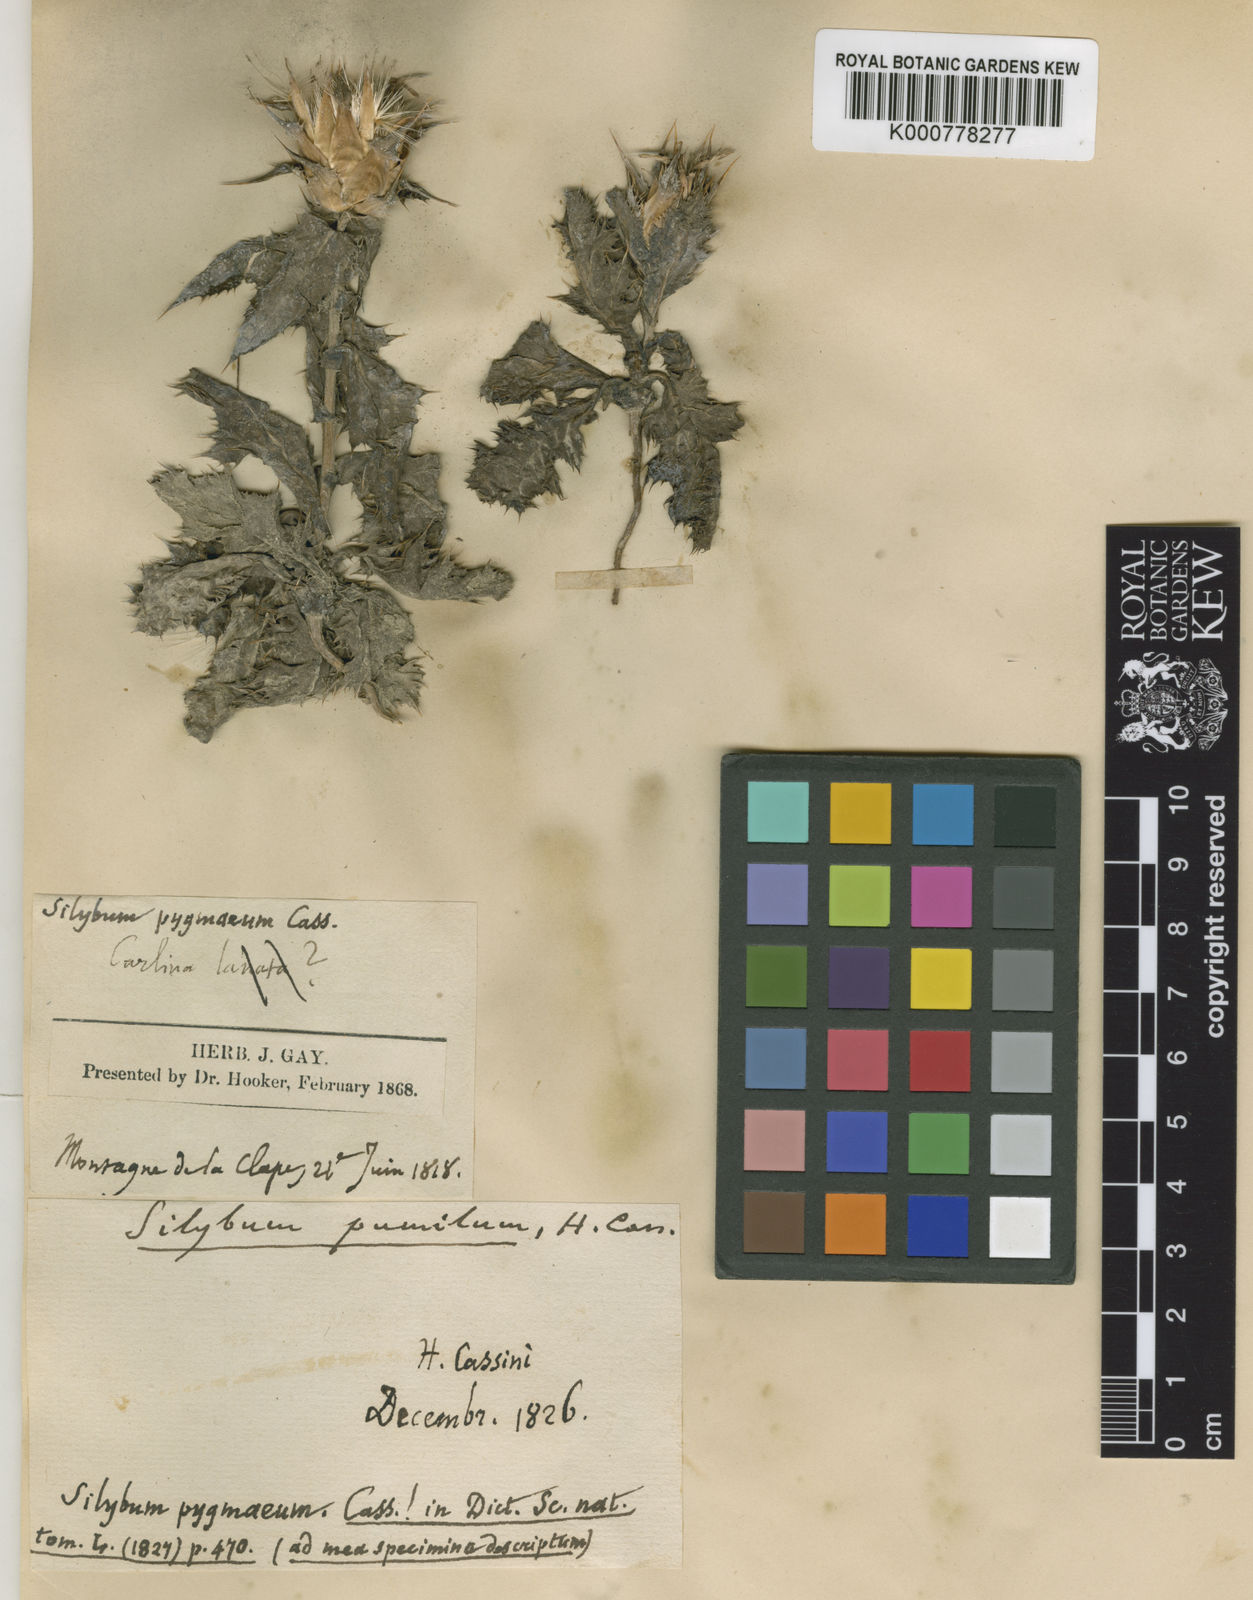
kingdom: Plantae
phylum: Tracheophyta
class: Magnoliopsida
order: Asterales
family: Asteraceae
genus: Silybum
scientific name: Silybum marianum
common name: Milk thistle
